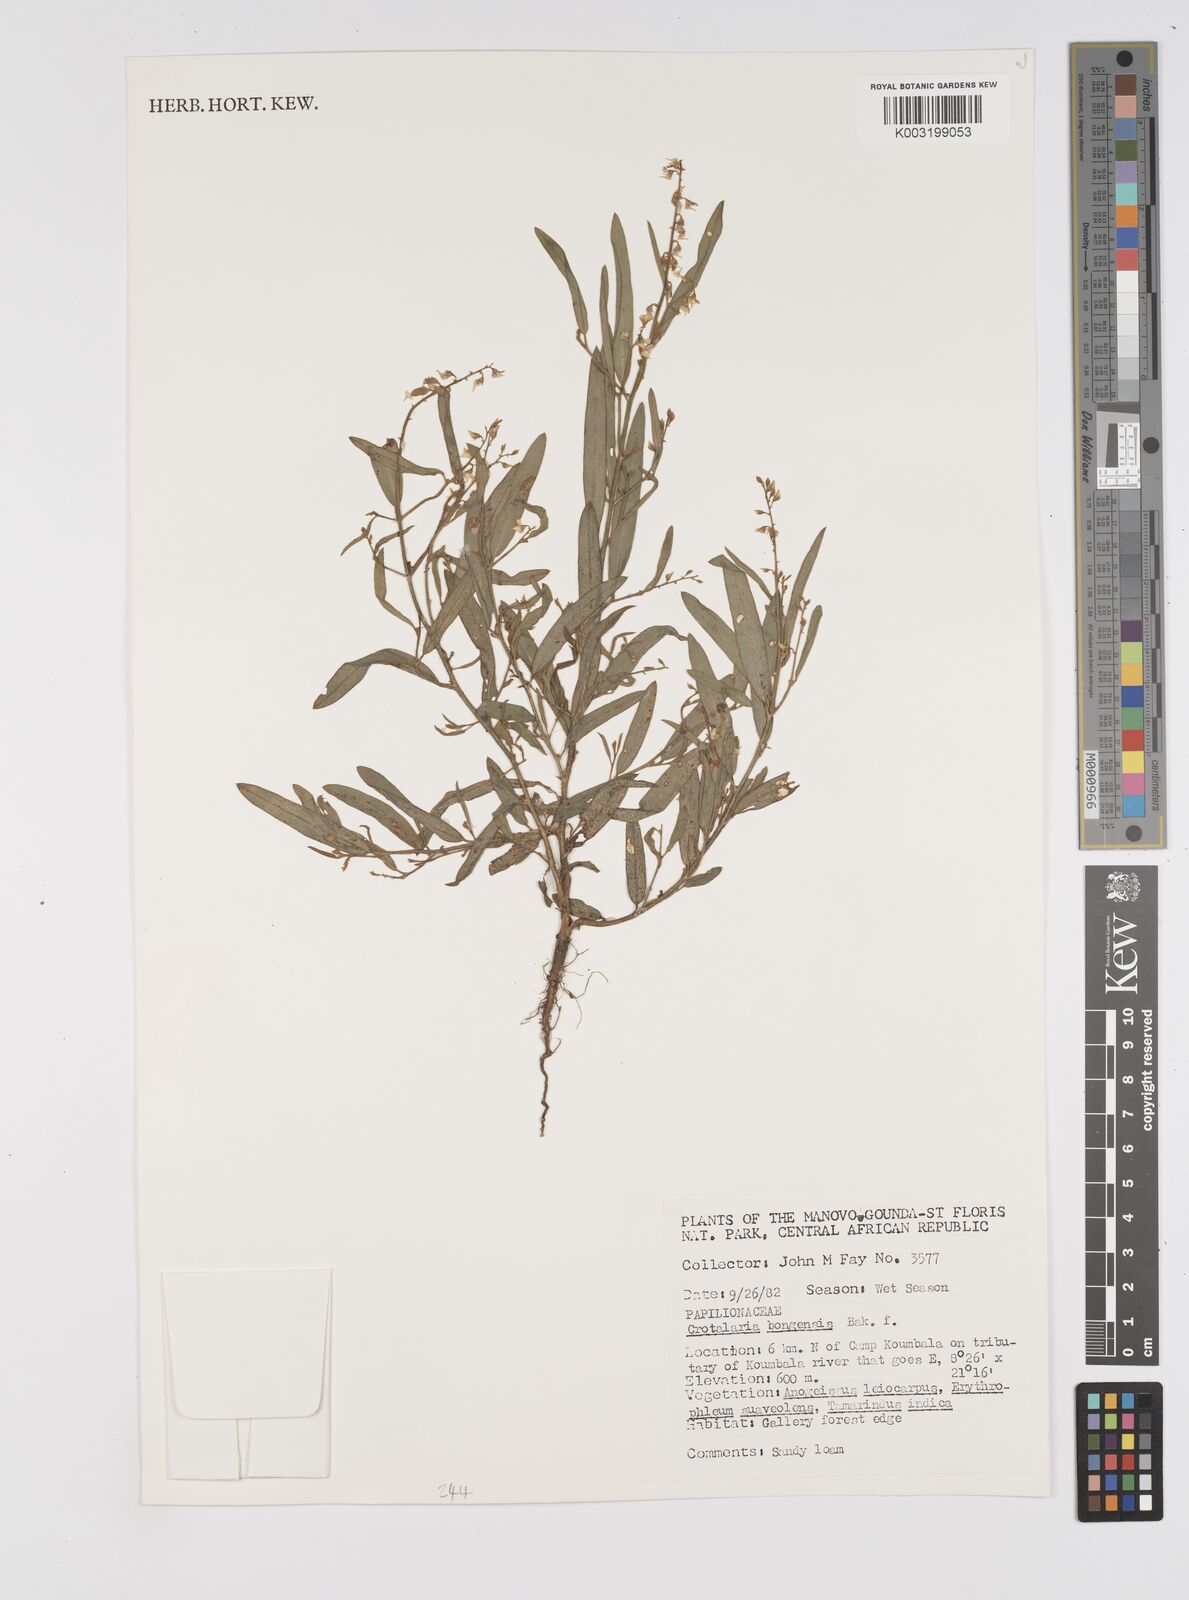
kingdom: Plantae
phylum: Tracheophyta
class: Magnoliopsida
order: Fabales
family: Fabaceae
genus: Crotalaria
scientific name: Crotalaria bongensis
